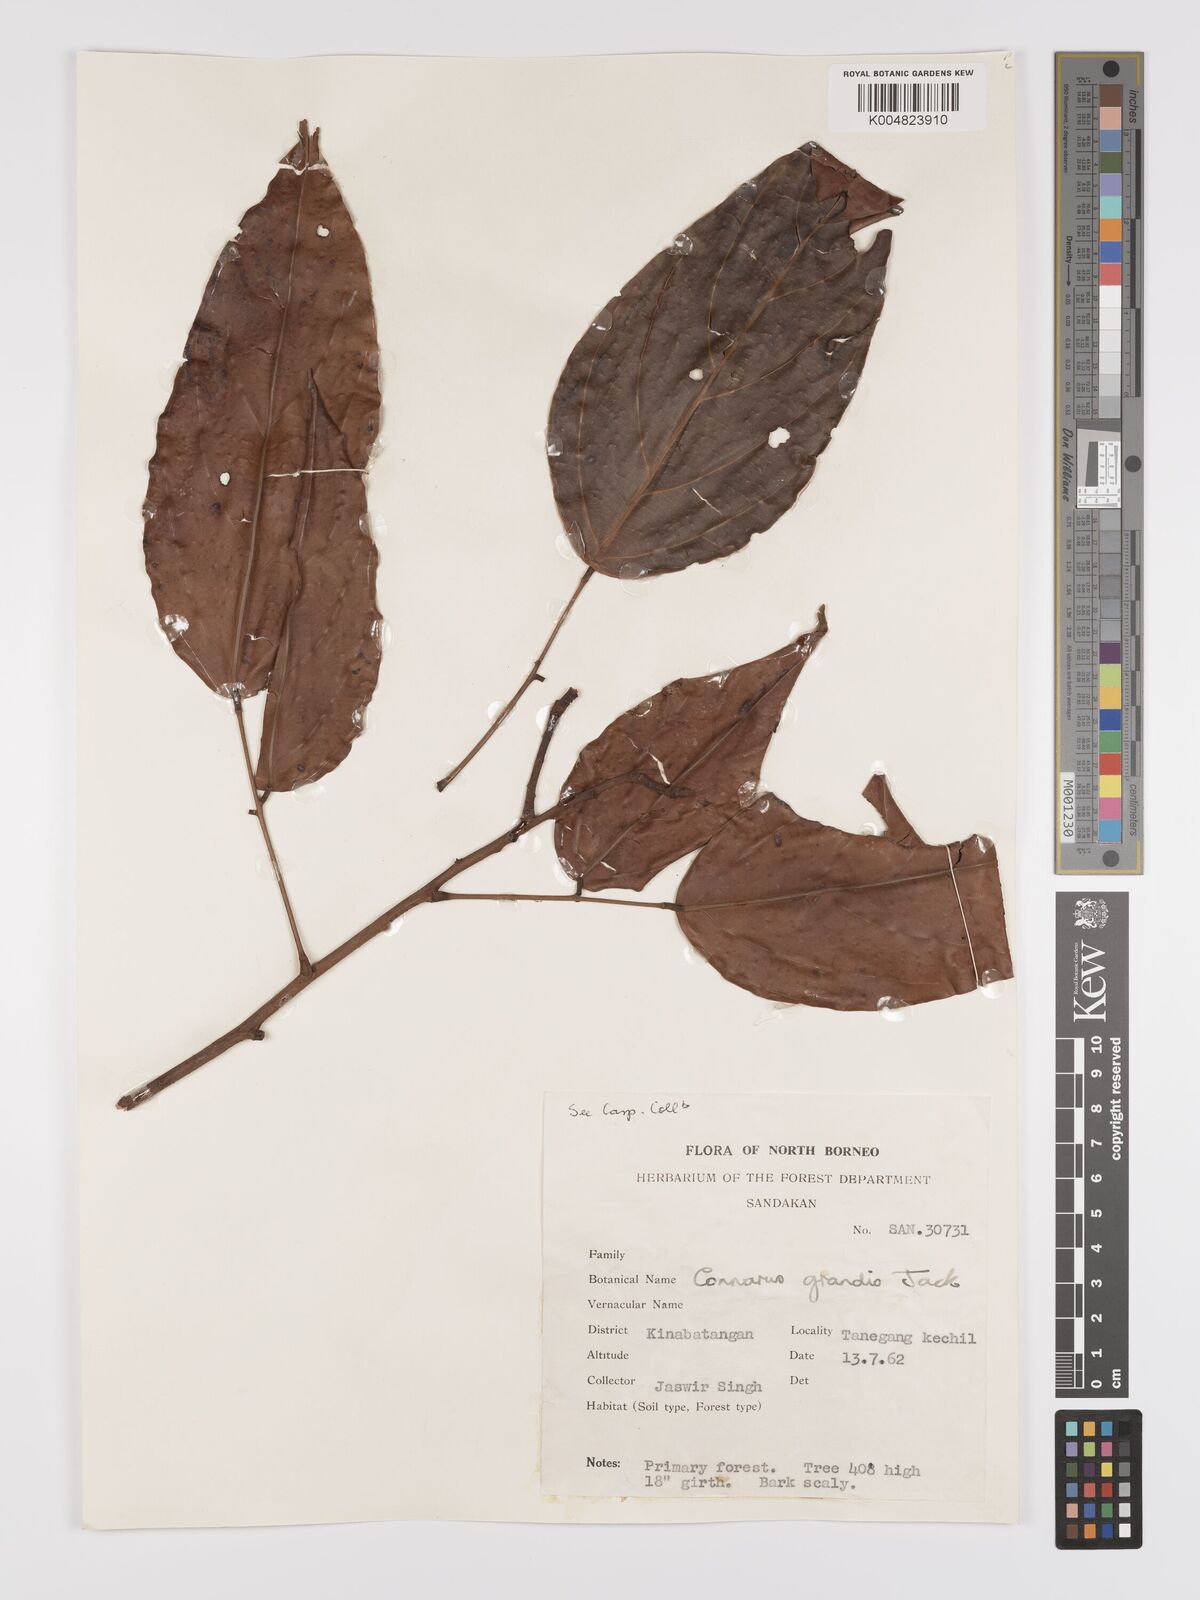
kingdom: Plantae
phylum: Tracheophyta
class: Magnoliopsida
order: Oxalidales
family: Connaraceae
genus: Connarus
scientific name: Connarus grandis
